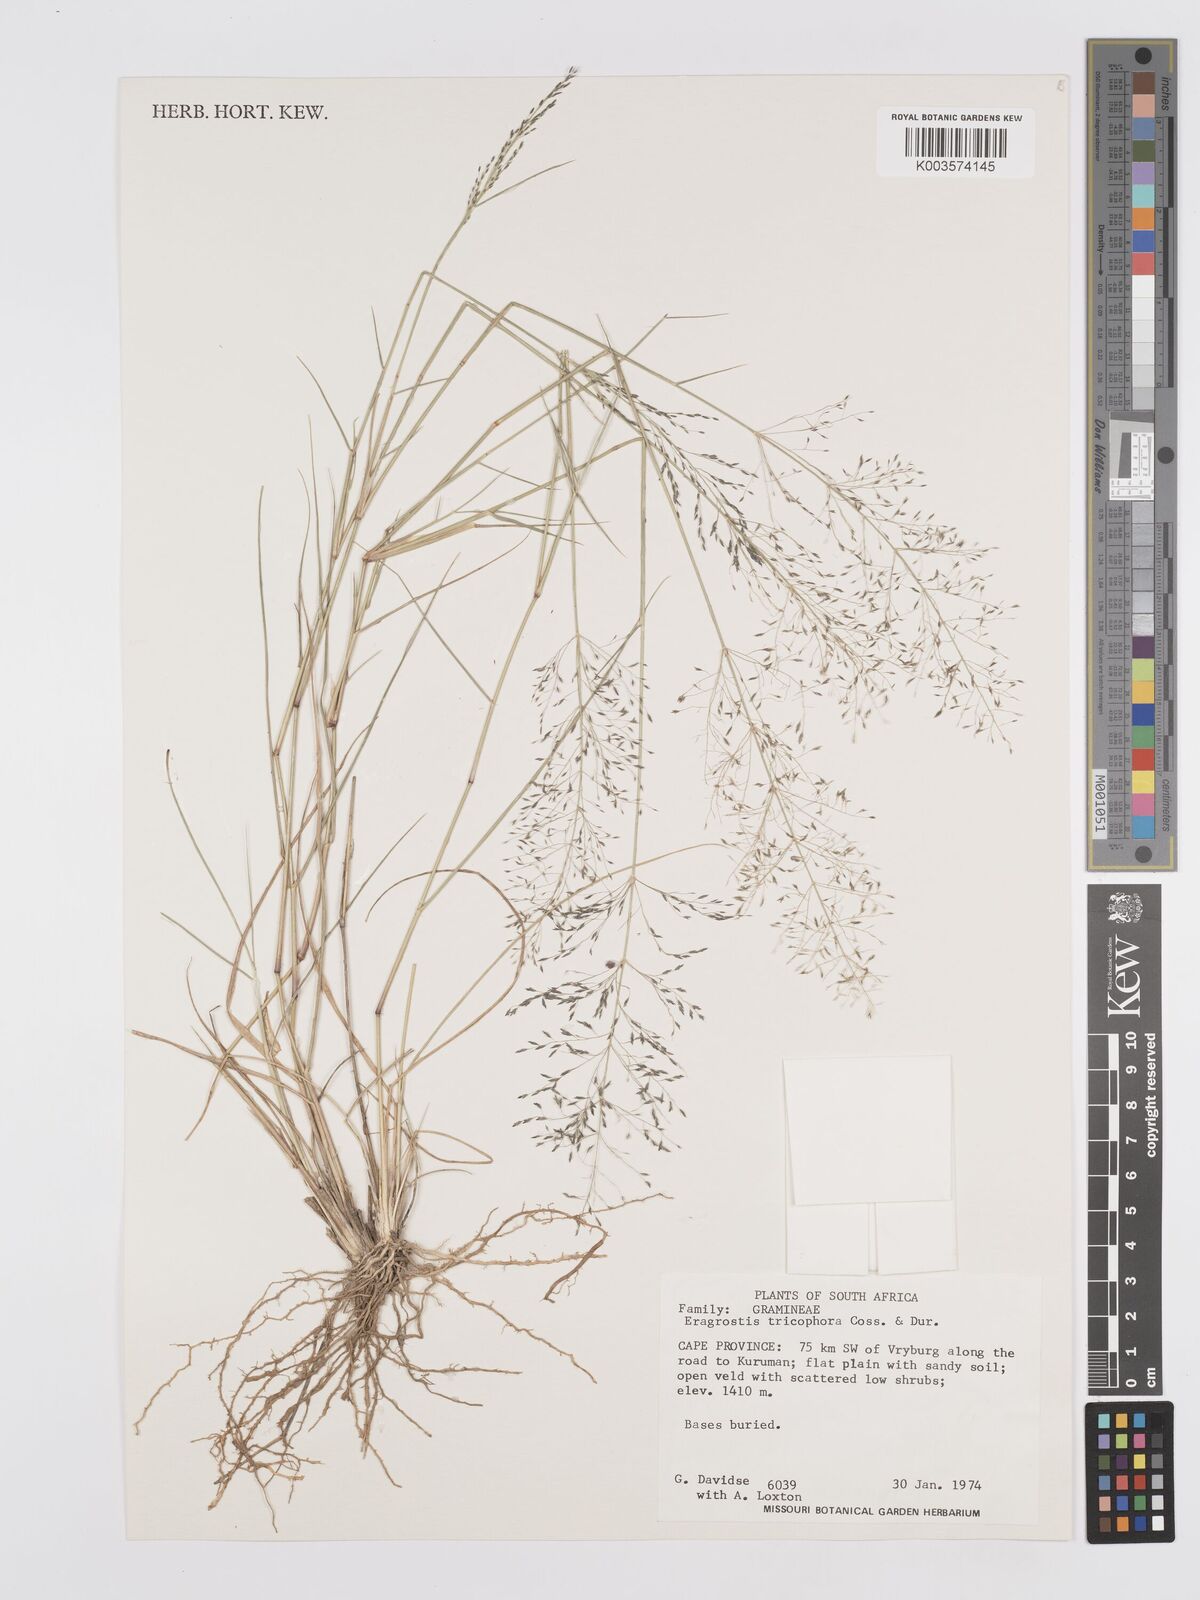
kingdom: Plantae
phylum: Tracheophyta
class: Liliopsida
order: Poales
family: Poaceae
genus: Eragrostis
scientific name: Eragrostis cylindriflora
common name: Cylinderflower lovegrass
